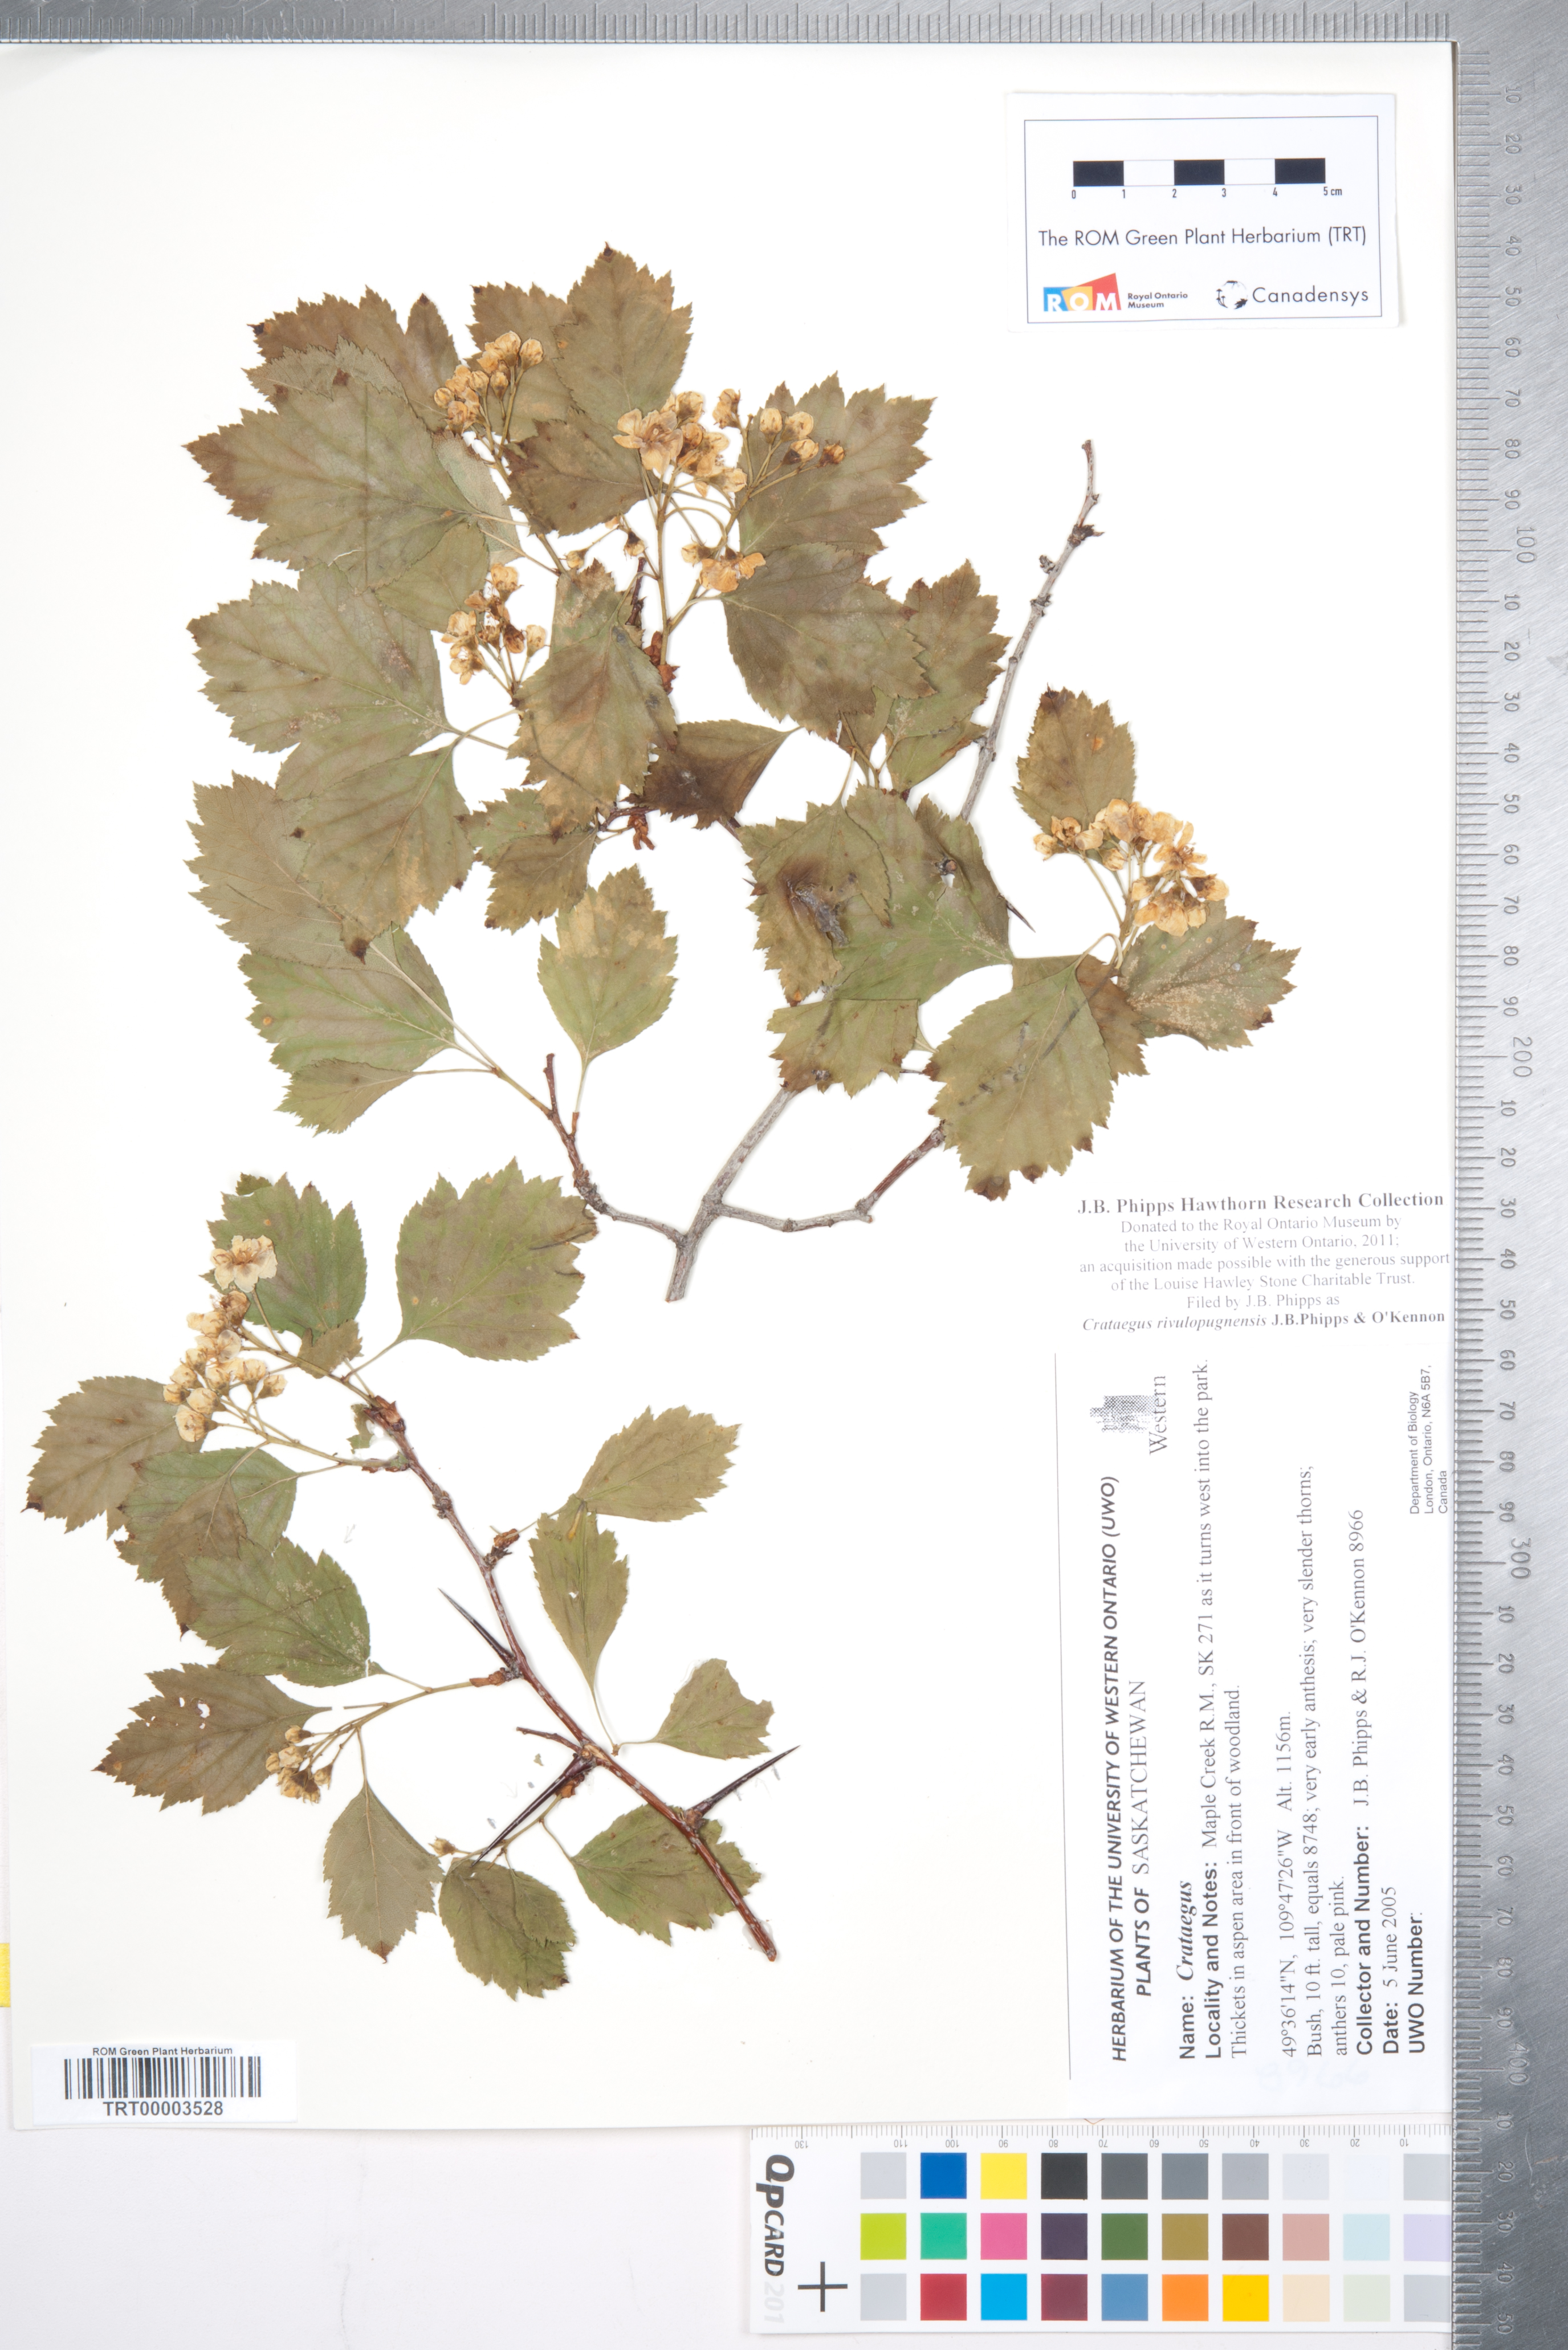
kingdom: Plantae
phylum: Tracheophyta
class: Magnoliopsida
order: Rosales
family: Rosaceae
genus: Crataegus
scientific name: Crataegus rivulopugnensis
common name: Battle creek hawthorn
